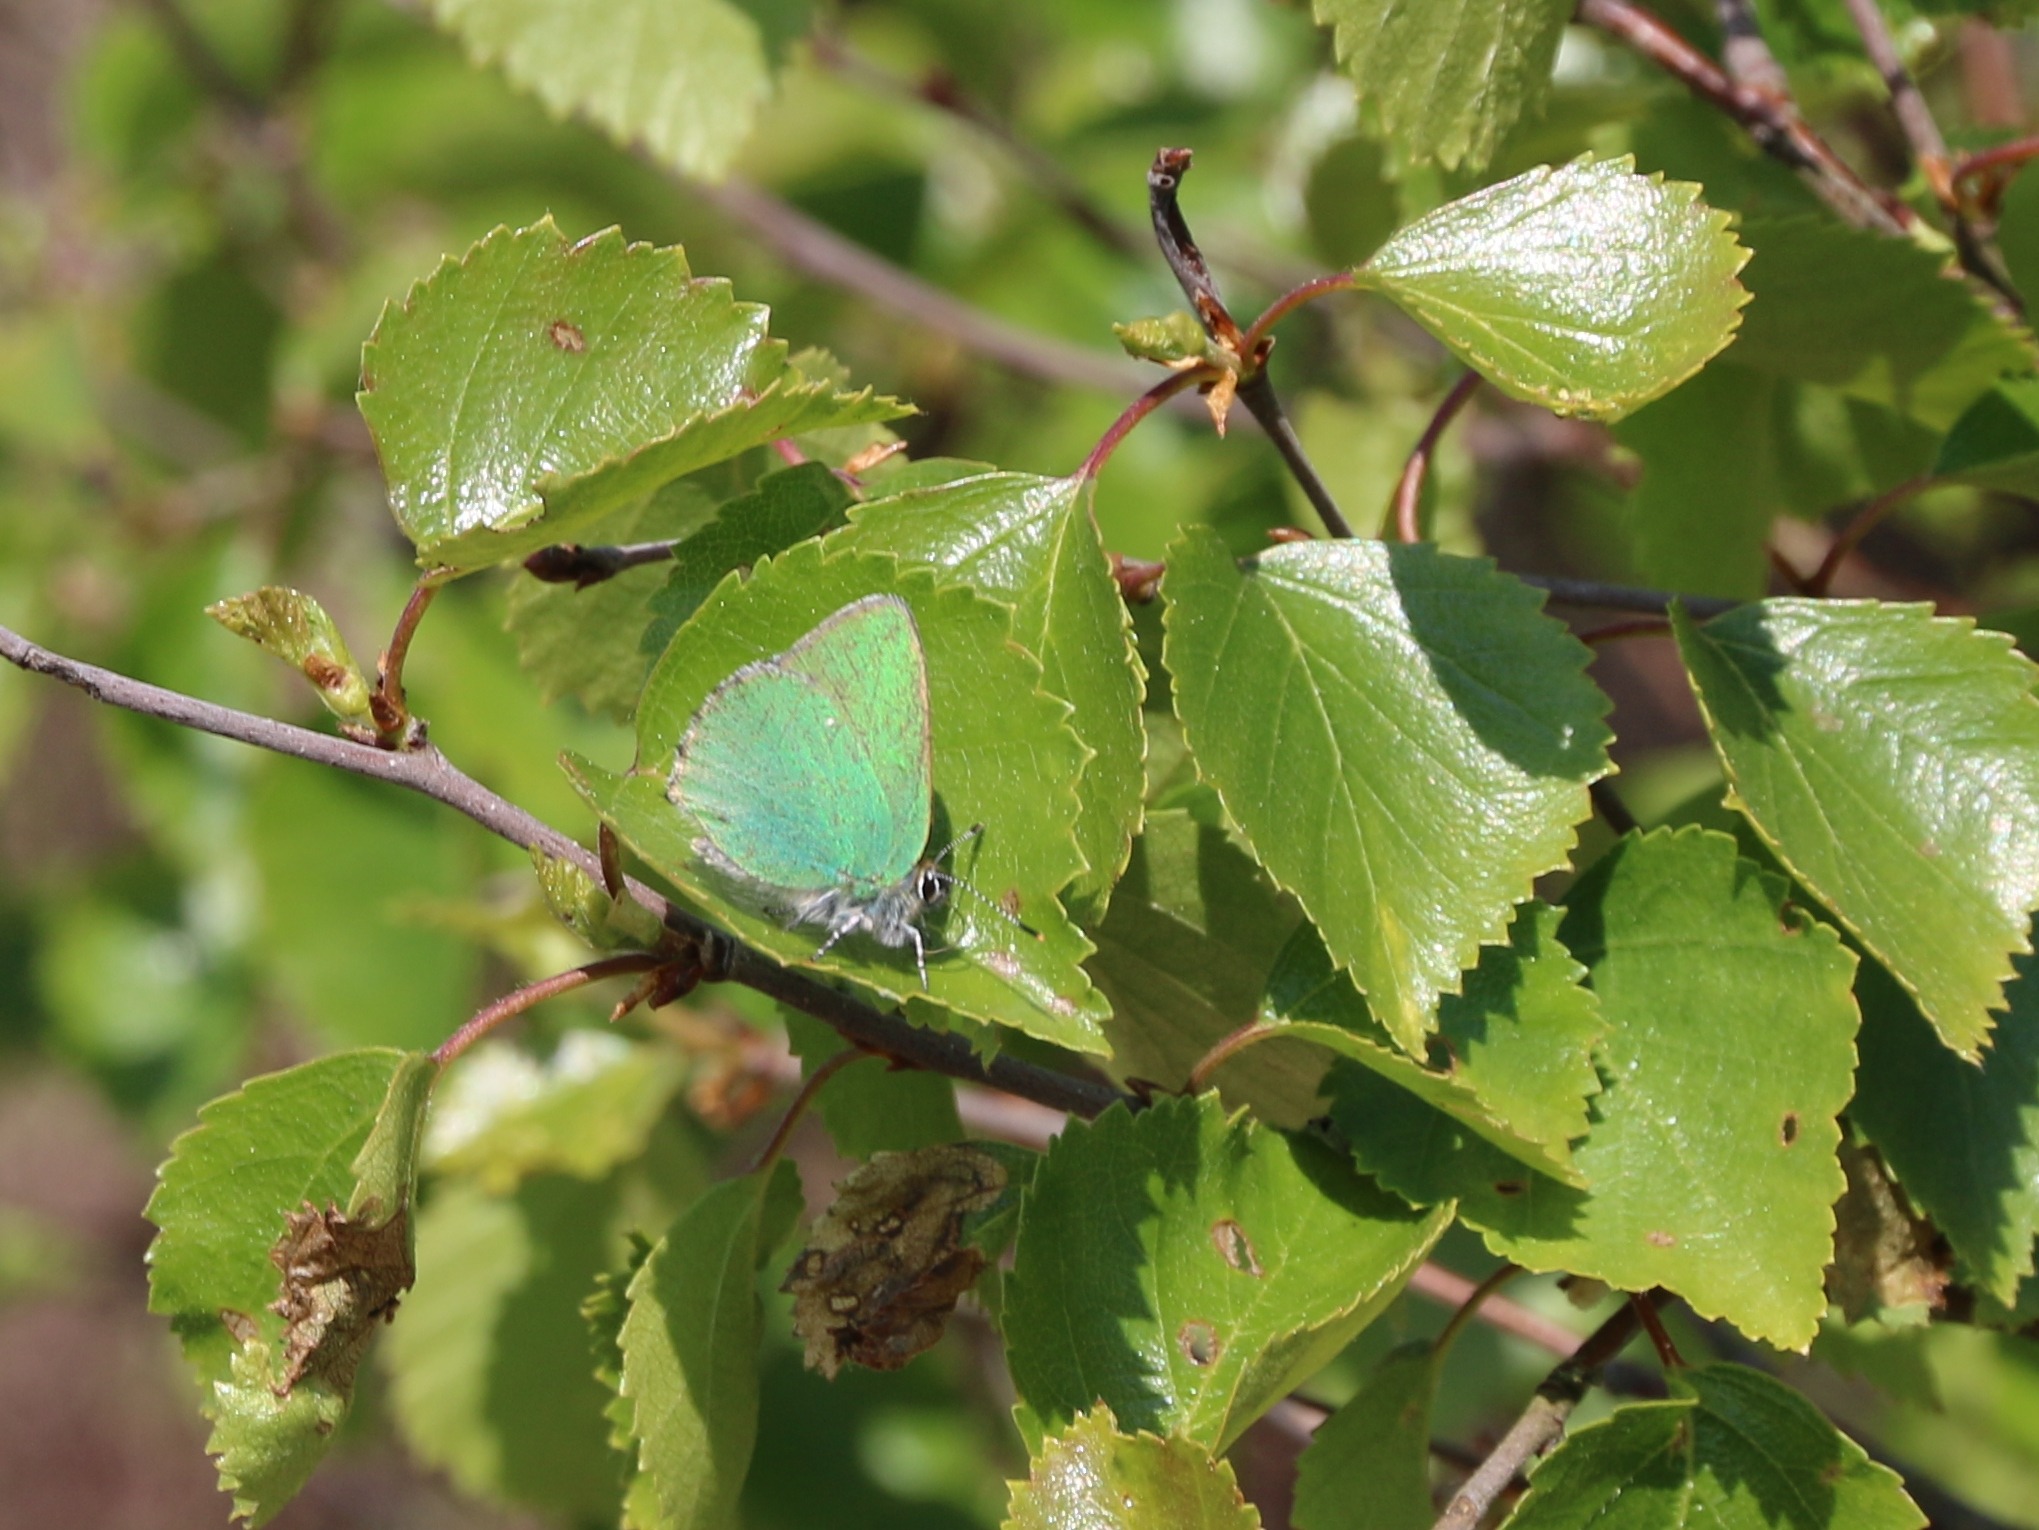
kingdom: Animalia
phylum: Arthropoda
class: Insecta
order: Lepidoptera
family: Lycaenidae
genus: Callophrys
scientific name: Callophrys rubi
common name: Grøn busksommerfugl
